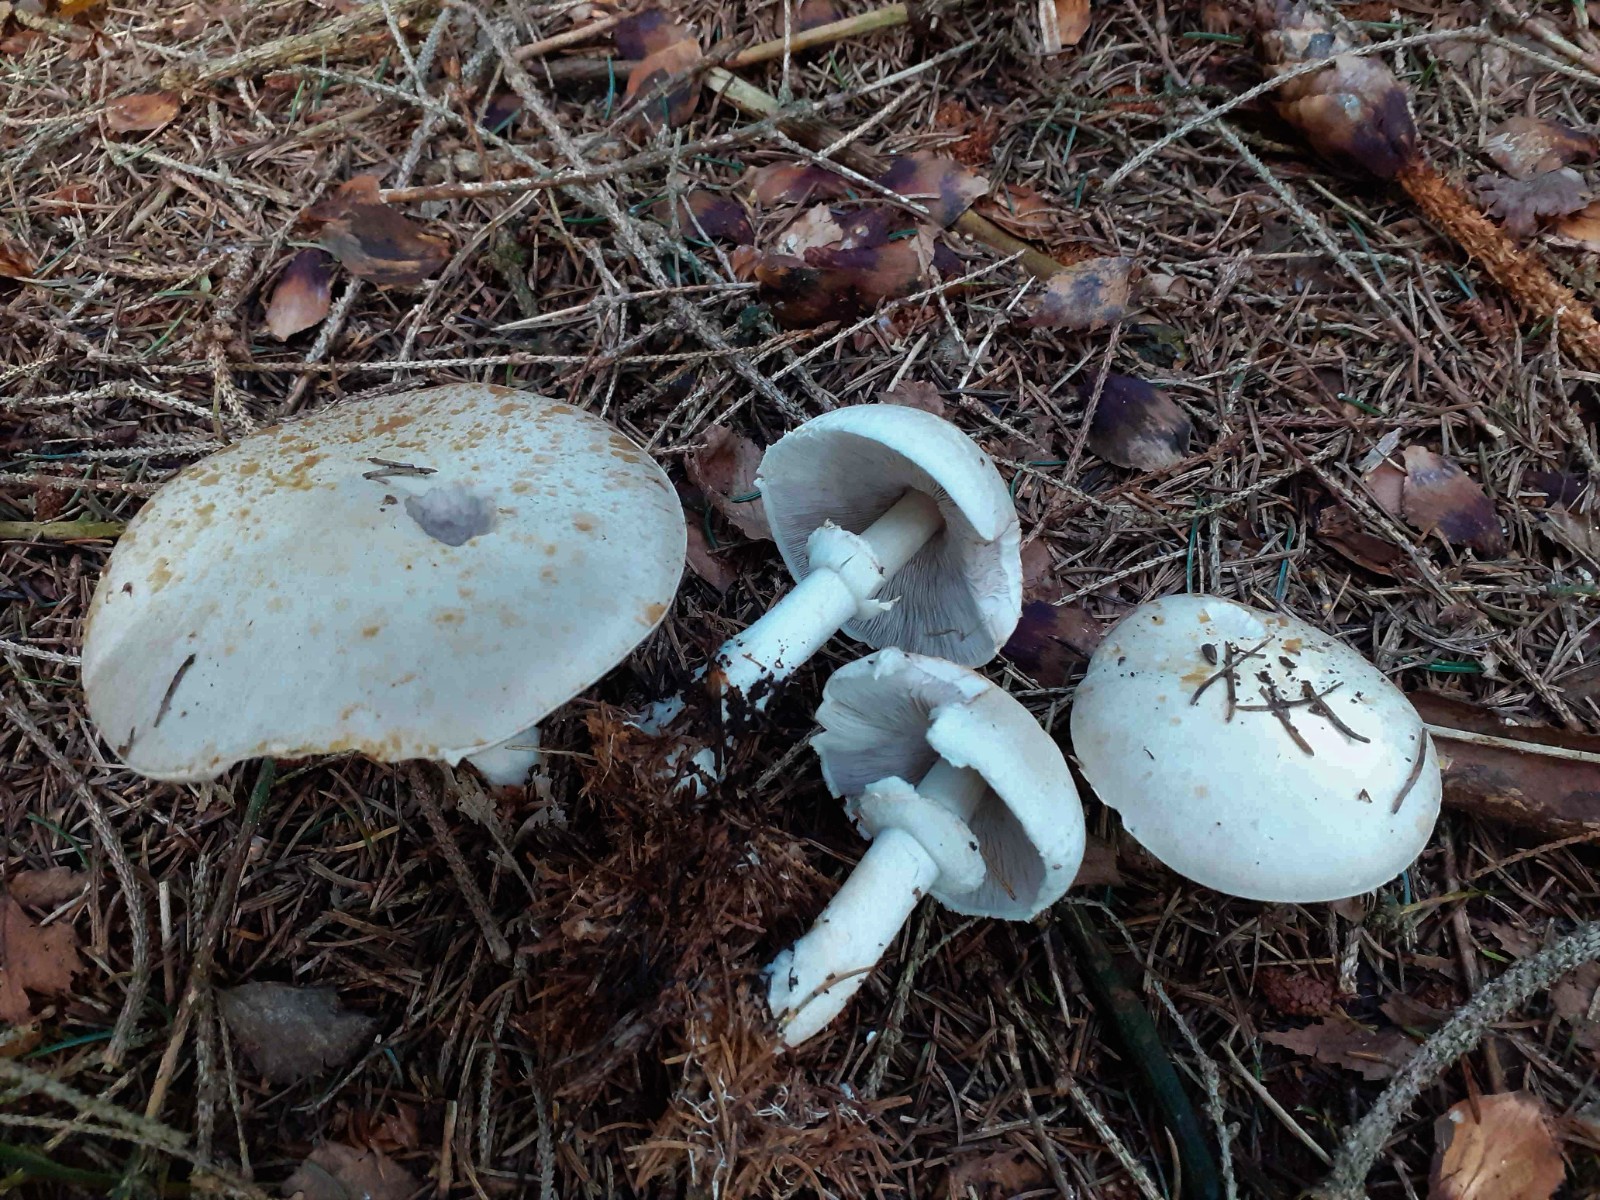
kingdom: Fungi
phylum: Basidiomycota
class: Agaricomycetes
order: Agaricales
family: Agaricaceae
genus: Agaricus
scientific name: Agaricus sylvicola
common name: skiveknoldet champignon
